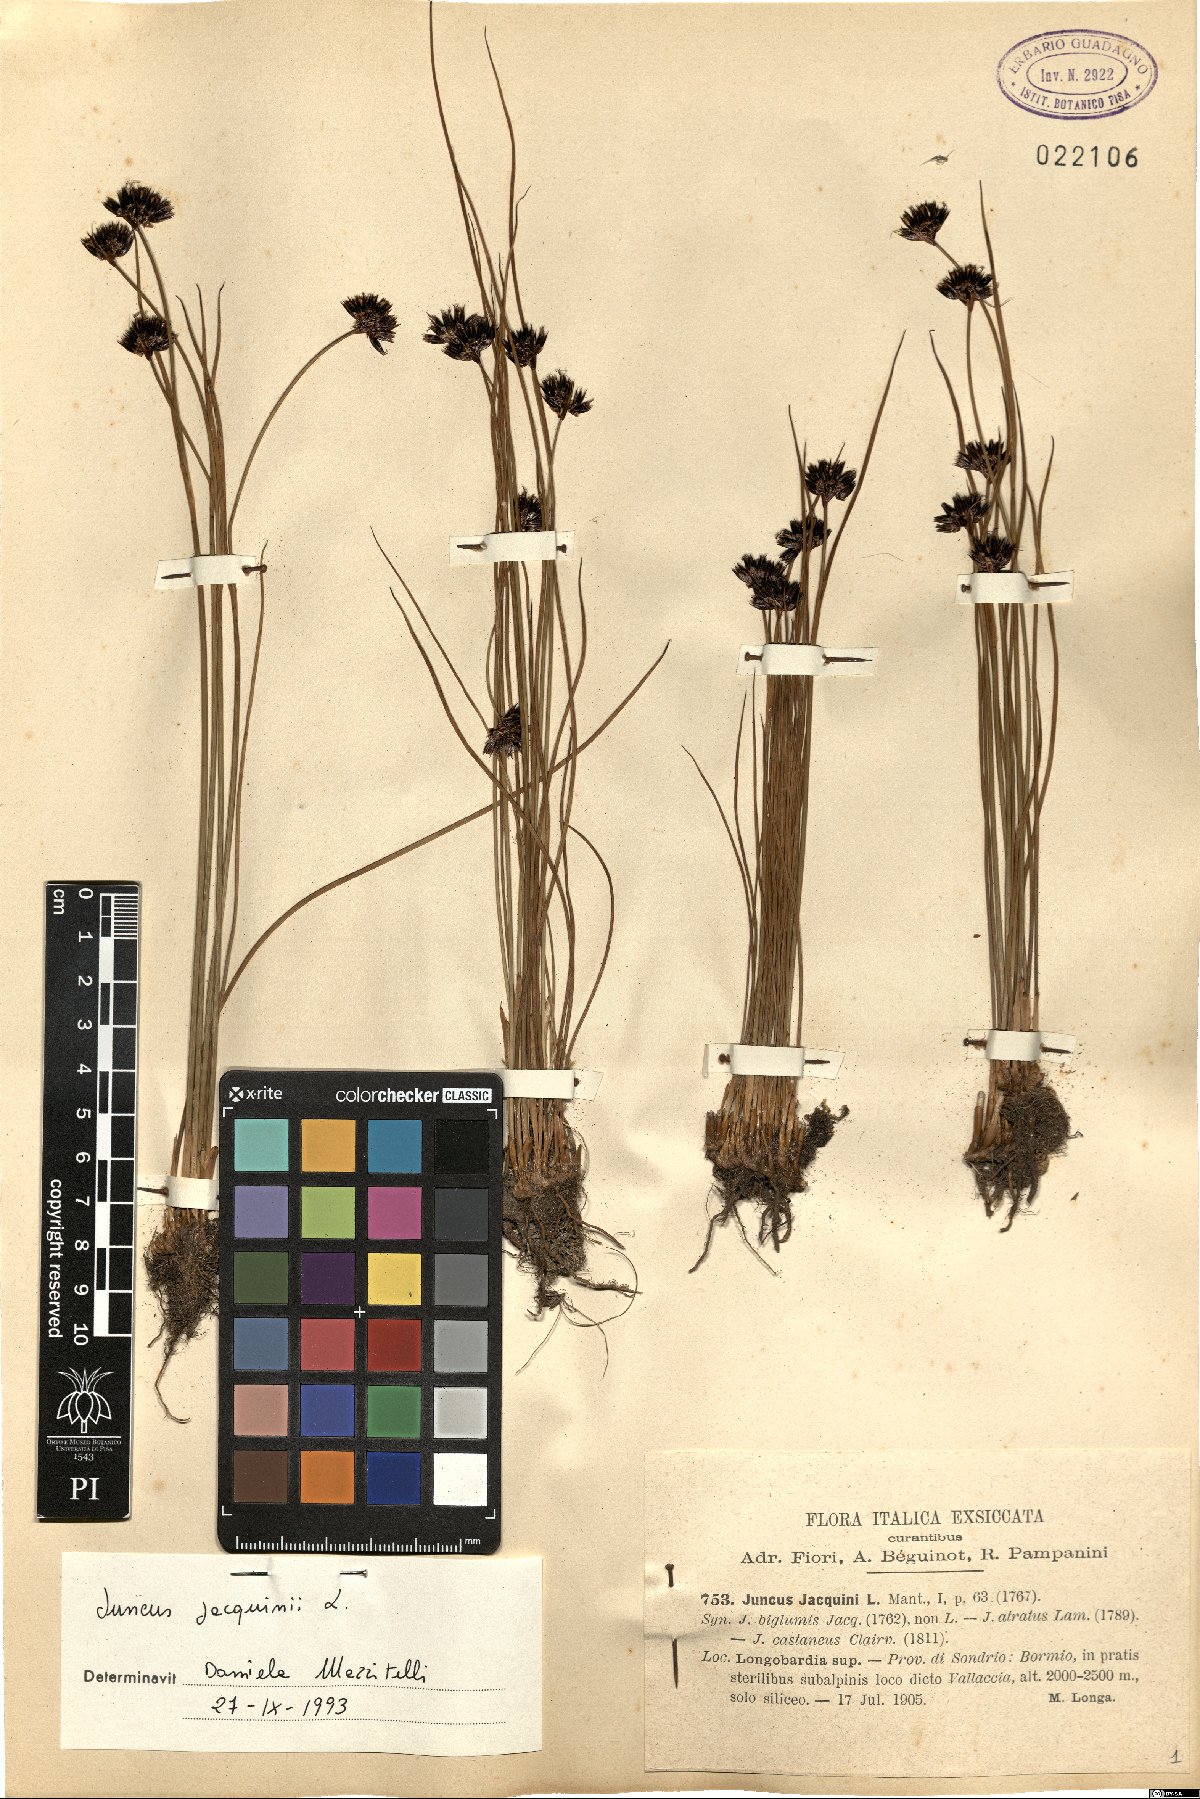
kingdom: Plantae
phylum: Tracheophyta
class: Liliopsida
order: Poales
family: Juncaceae
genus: Juncus
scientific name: Juncus jacquinii
